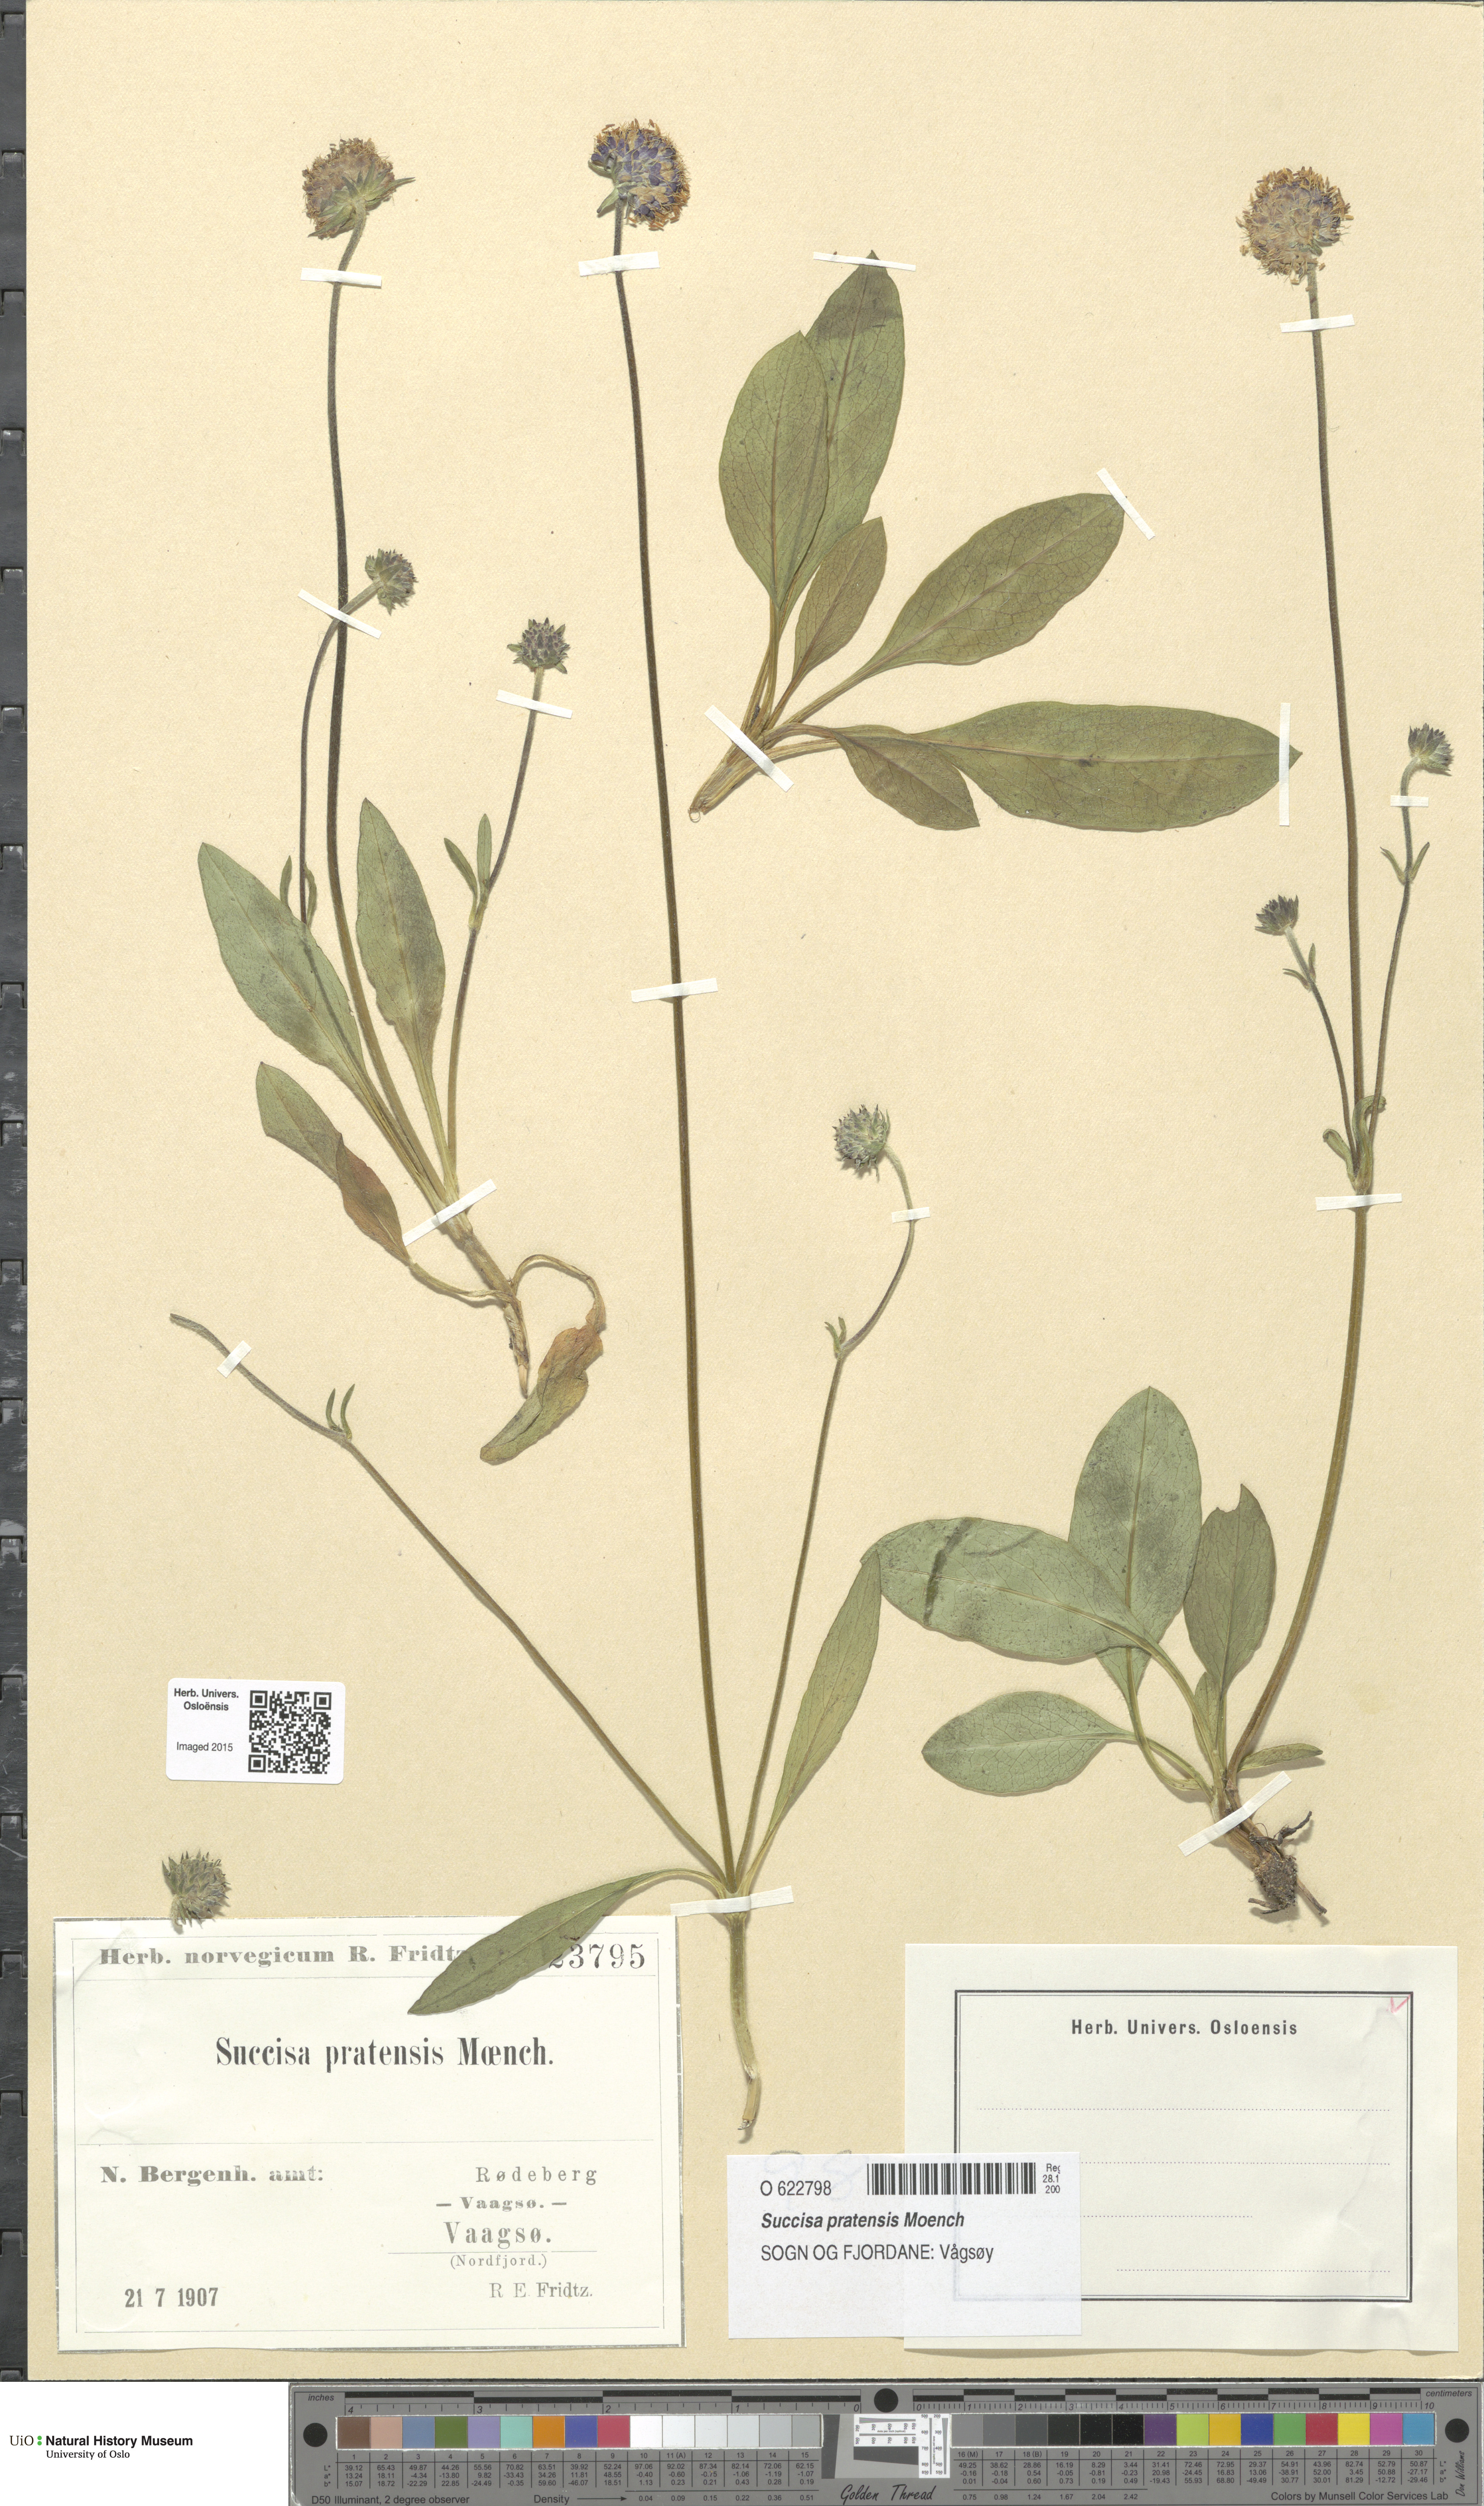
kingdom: Plantae
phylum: Tracheophyta
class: Magnoliopsida
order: Dipsacales
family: Caprifoliaceae
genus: Succisa
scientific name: Succisa pratensis
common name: Devil's-bit
